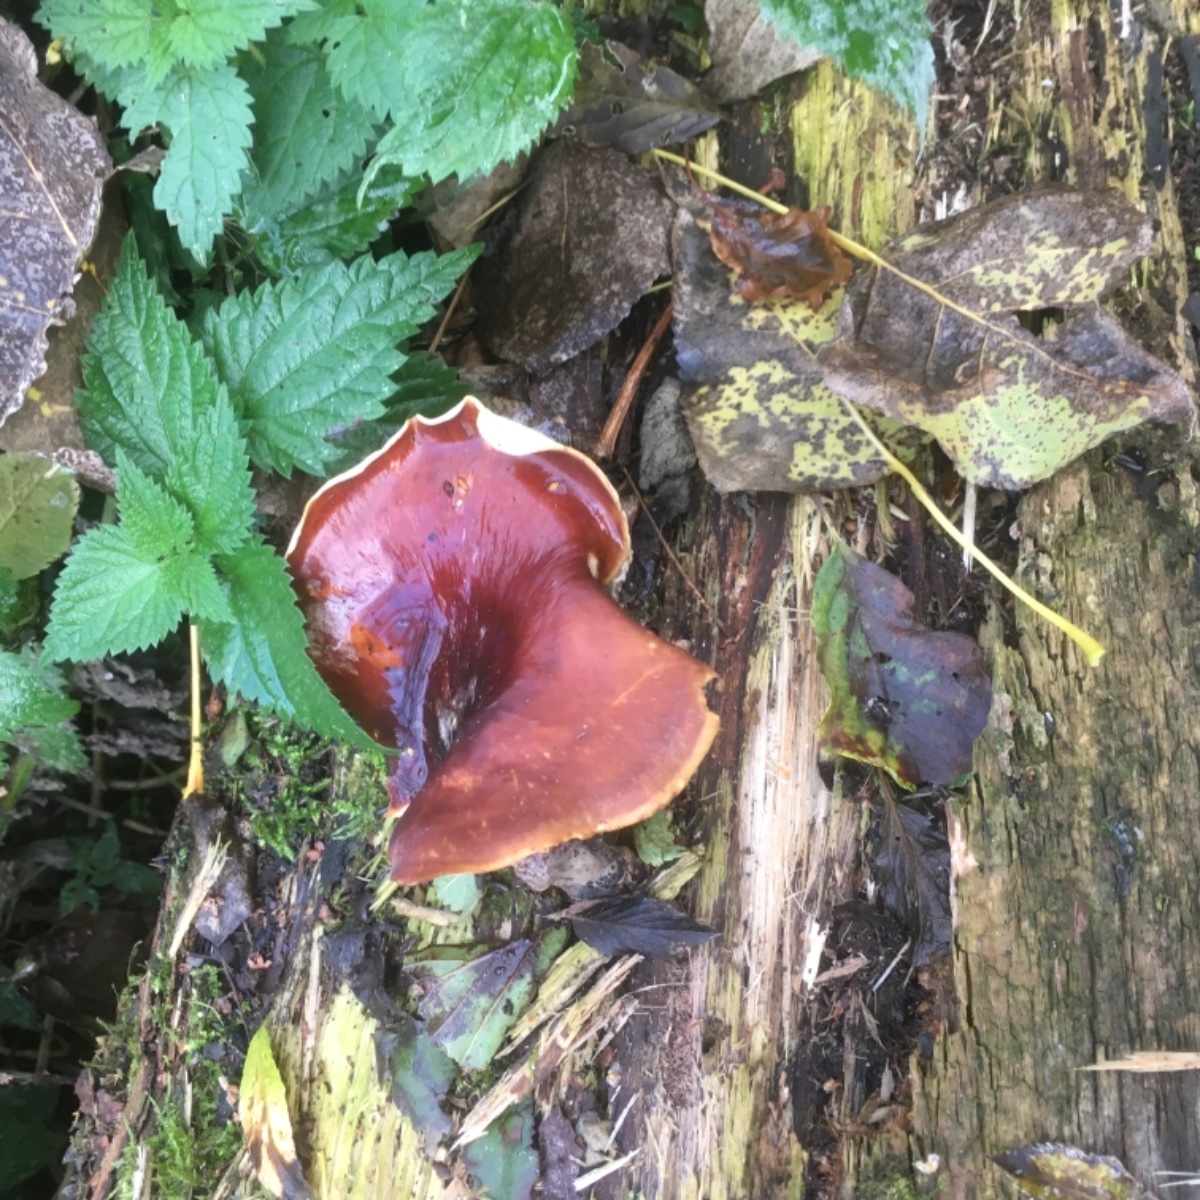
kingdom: Fungi
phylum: Basidiomycota
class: Agaricomycetes
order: Polyporales
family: Polyporaceae
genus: Picipes
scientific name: Picipes badius
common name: kastaniebrun stilkporesvamp
